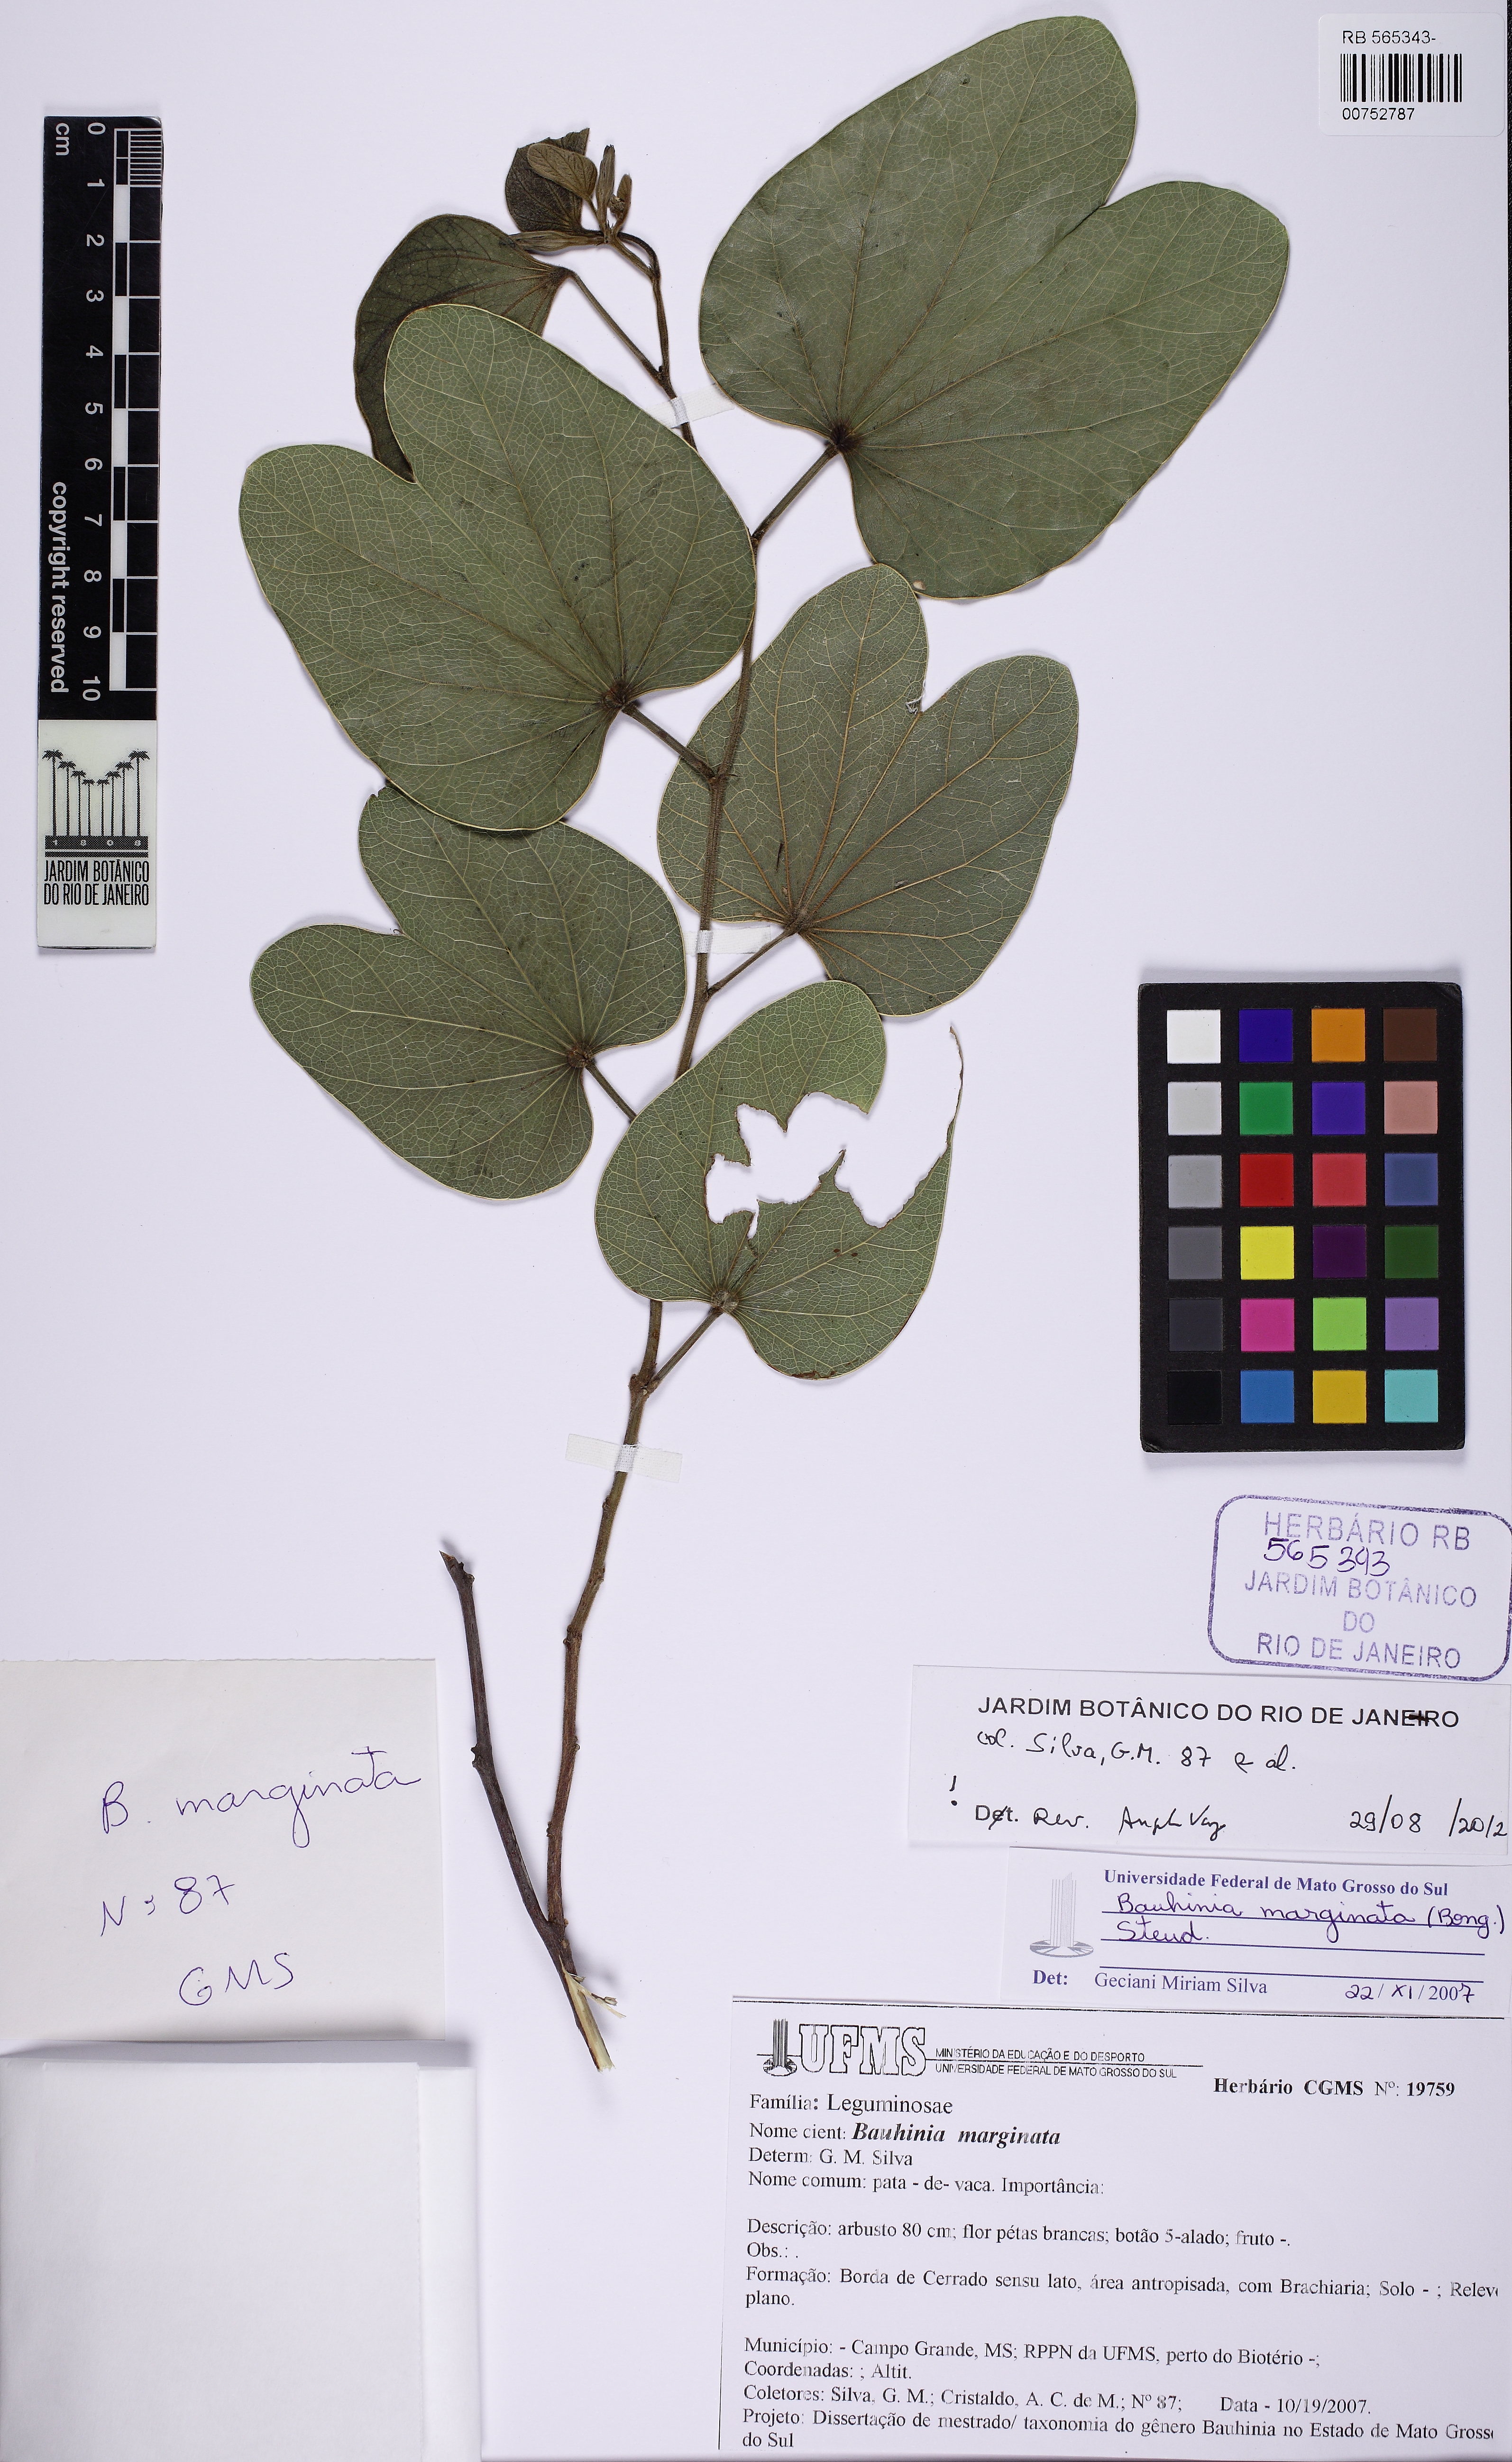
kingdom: Plantae
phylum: Tracheophyta
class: Magnoliopsida
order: Fabales
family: Fabaceae
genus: Bauhinia
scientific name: Bauhinia marginata
